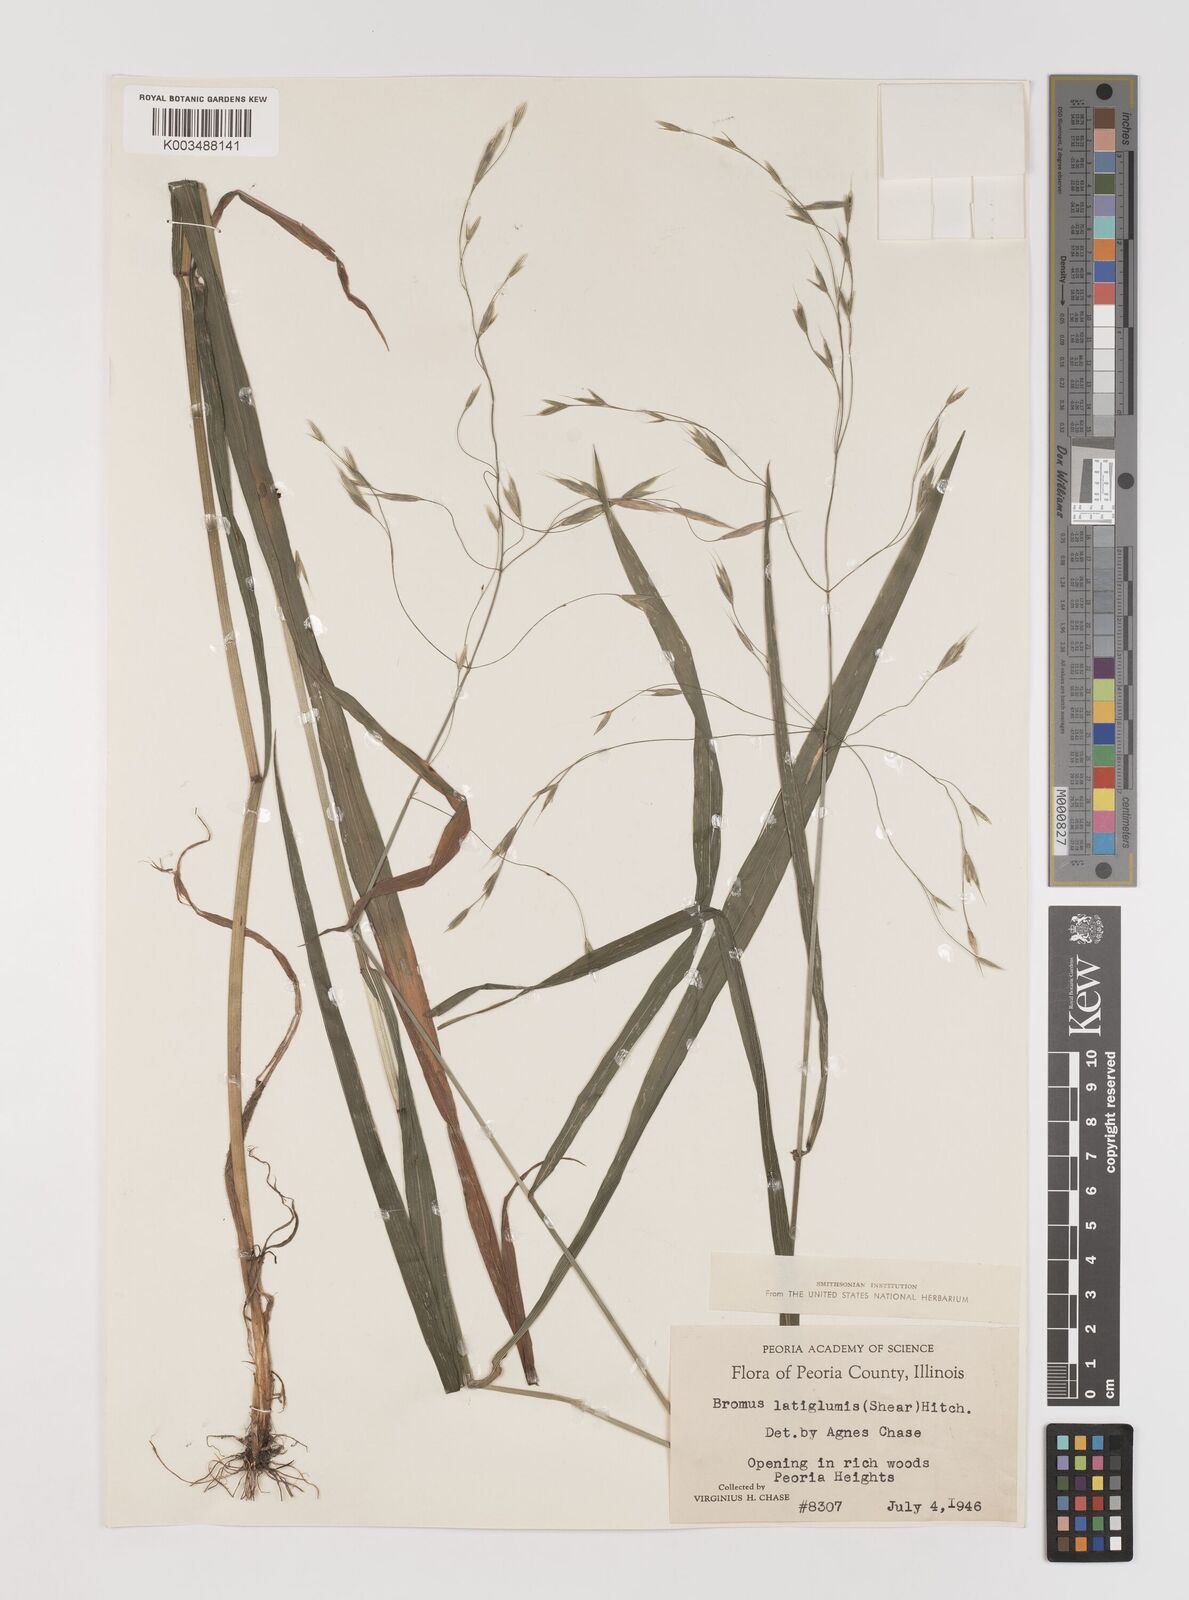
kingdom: Plantae
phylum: Tracheophyta
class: Liliopsida
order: Poales
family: Poaceae
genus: Bromus
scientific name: Bromus latiglumis
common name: Broad-glumed brome
